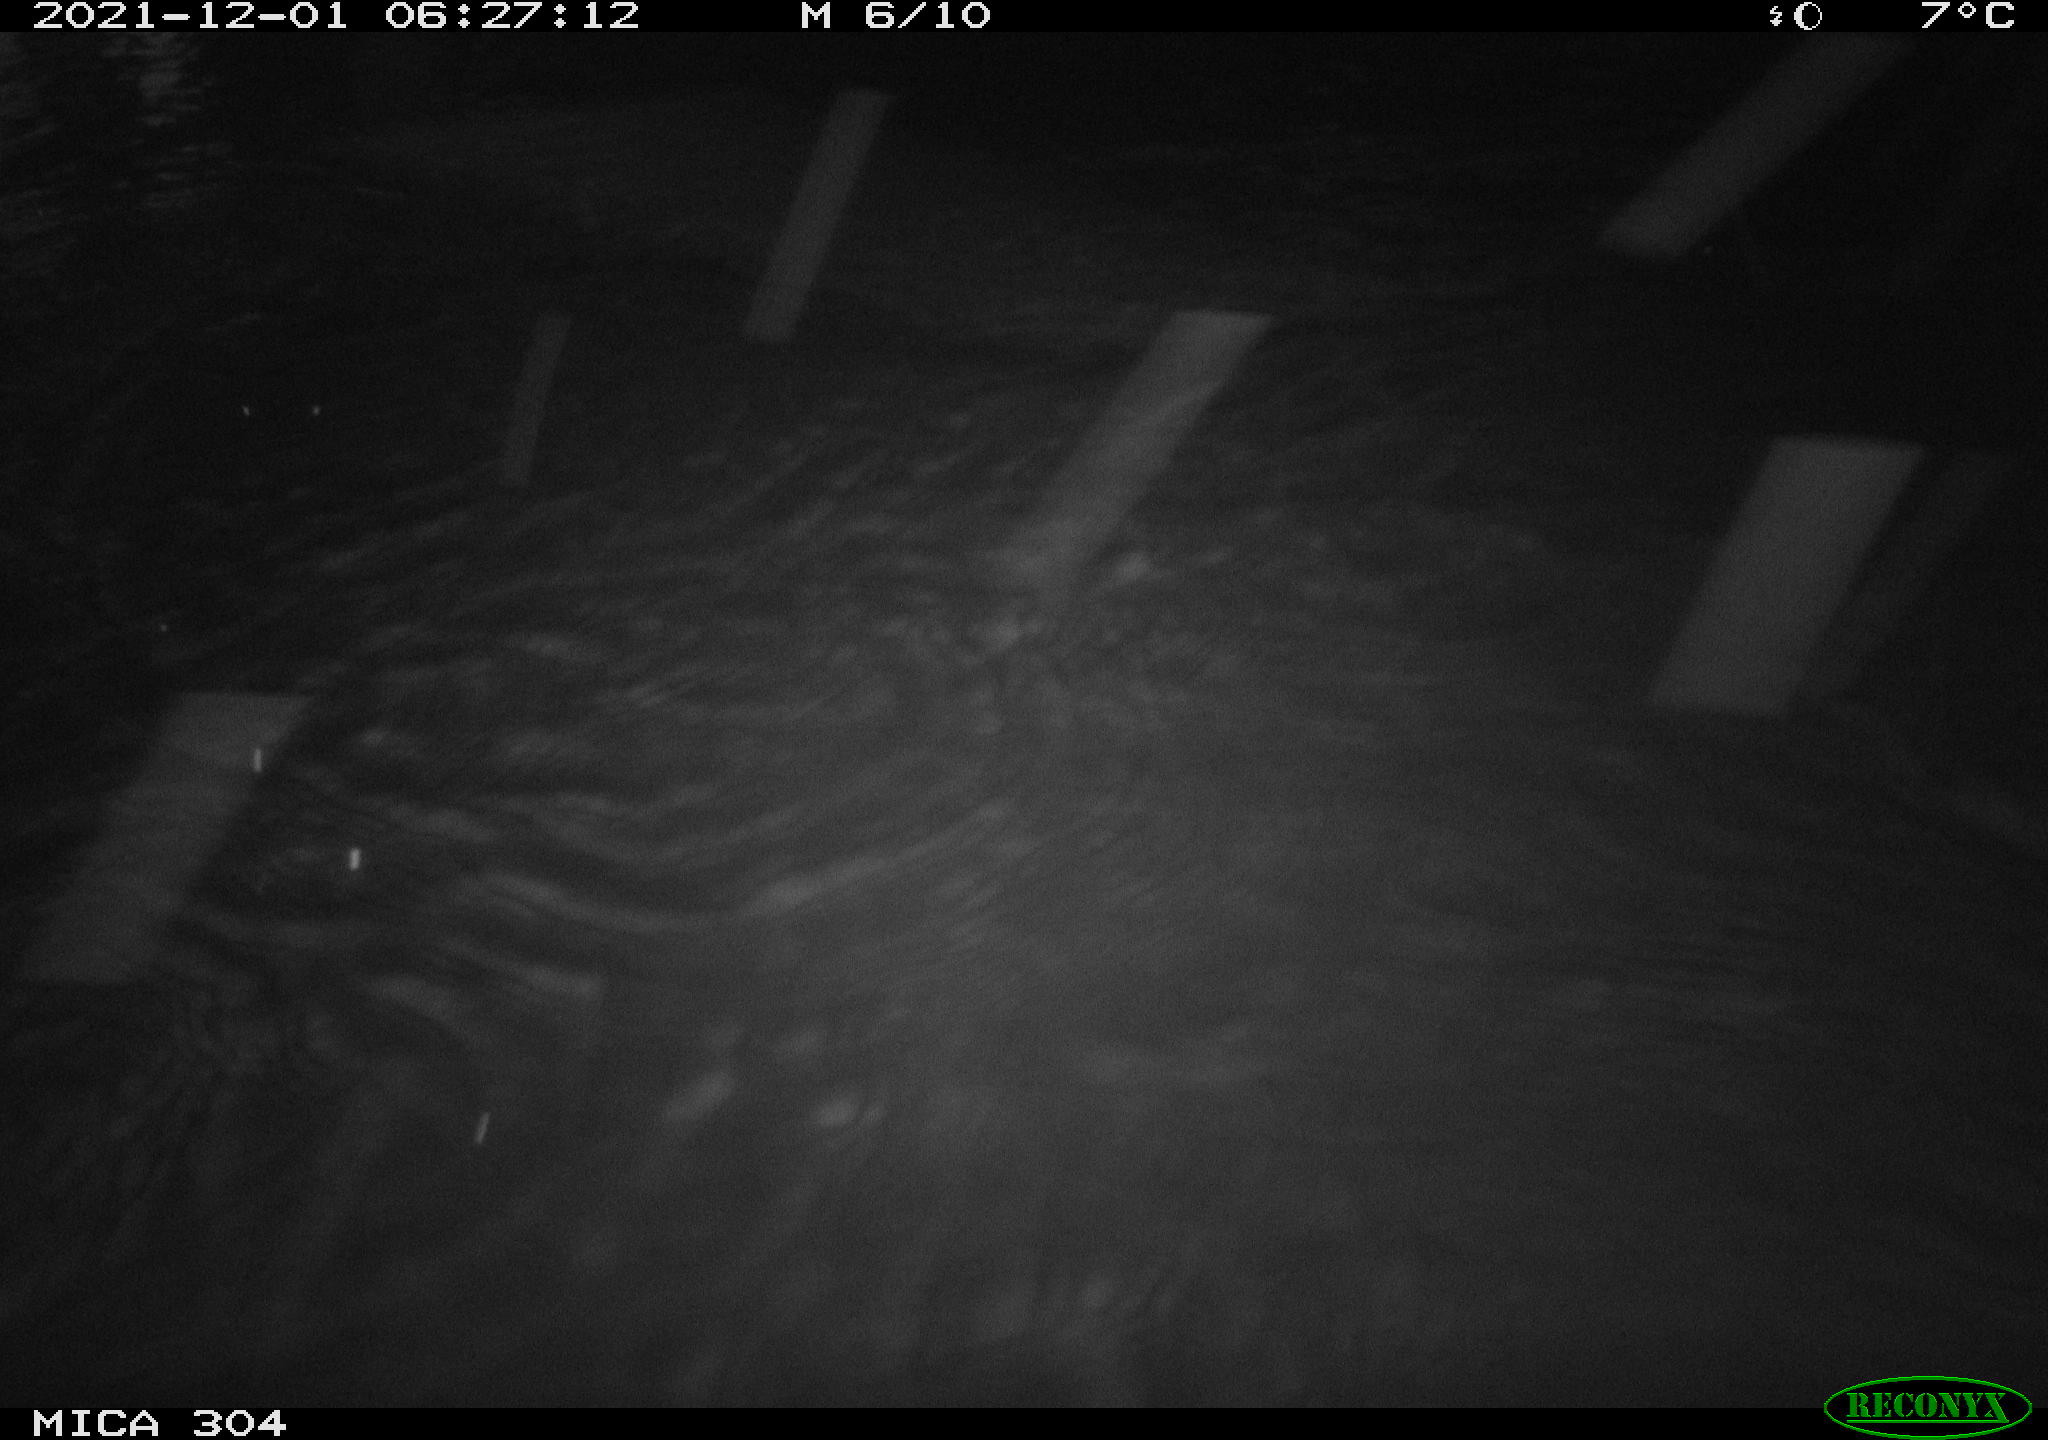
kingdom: Animalia
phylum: Chordata
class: Mammalia
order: Rodentia
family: Muridae
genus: Rattus
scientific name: Rattus norvegicus
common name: Brown rat
